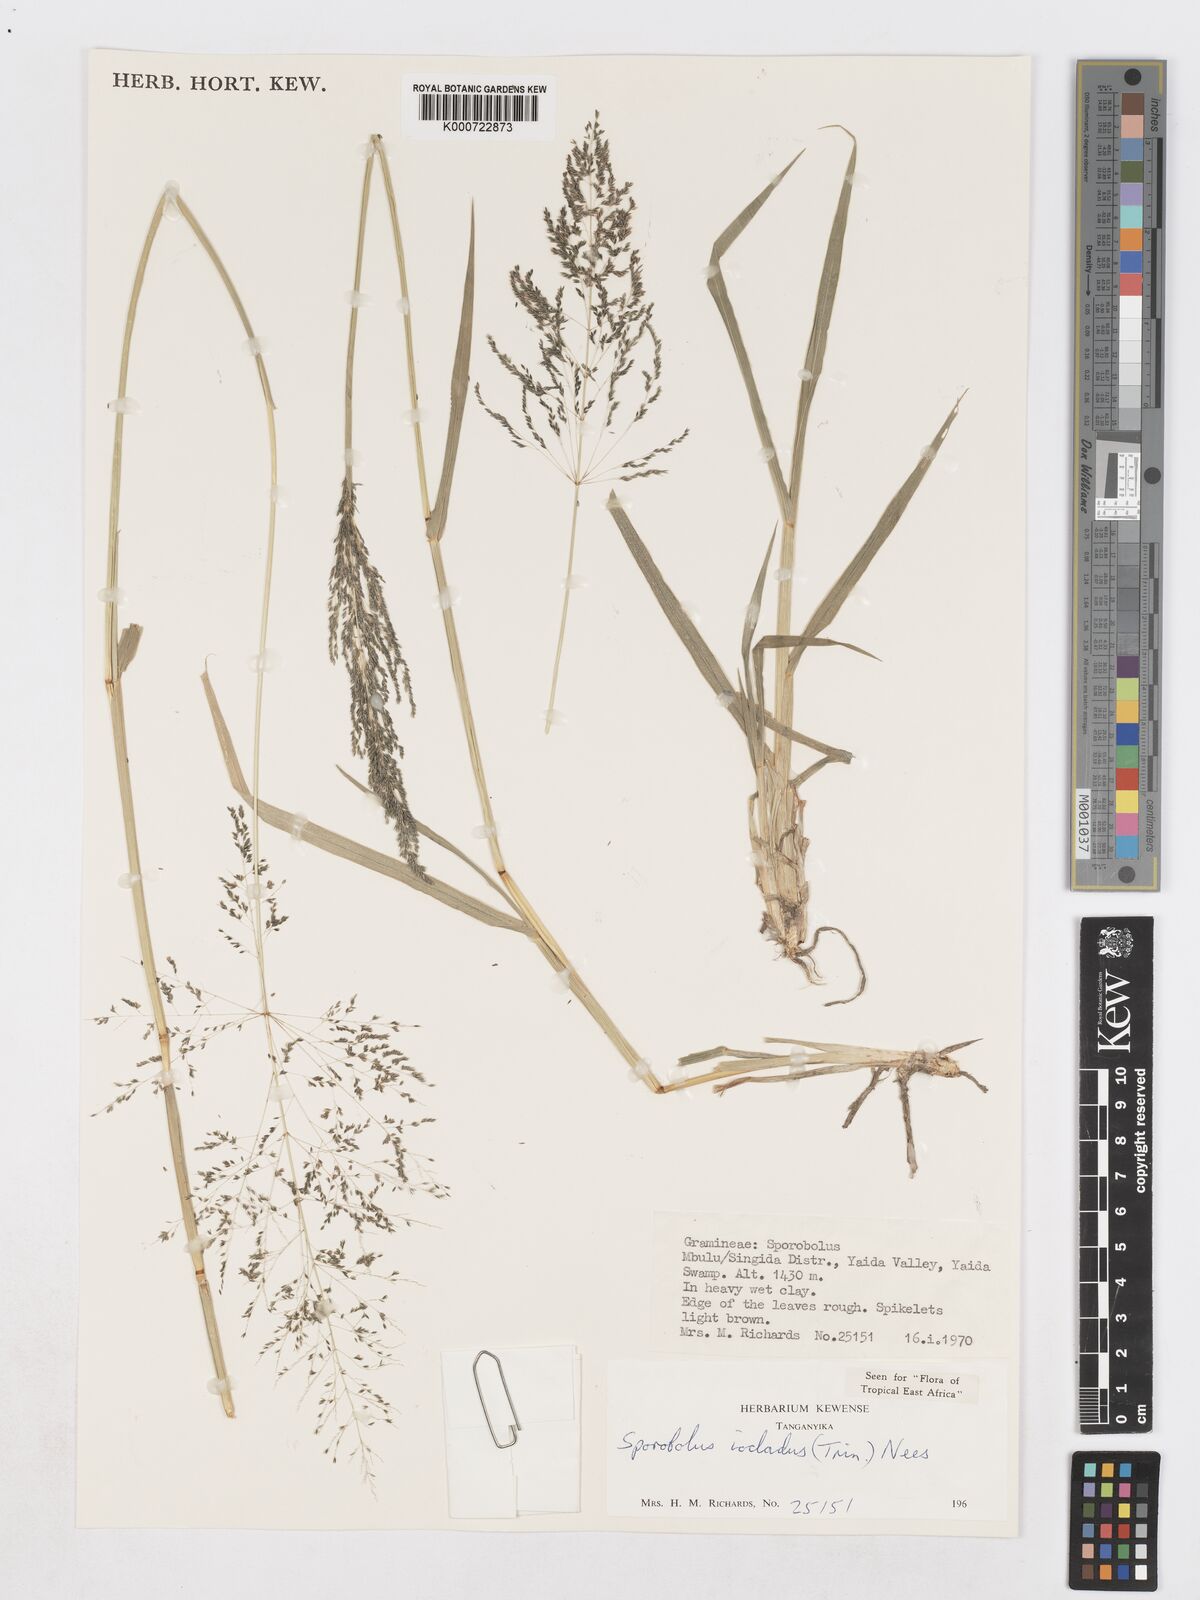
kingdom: Plantae
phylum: Tracheophyta
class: Liliopsida
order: Poales
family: Poaceae
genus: Sporobolus
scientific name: Sporobolus ioclados
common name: Pan dropseed
